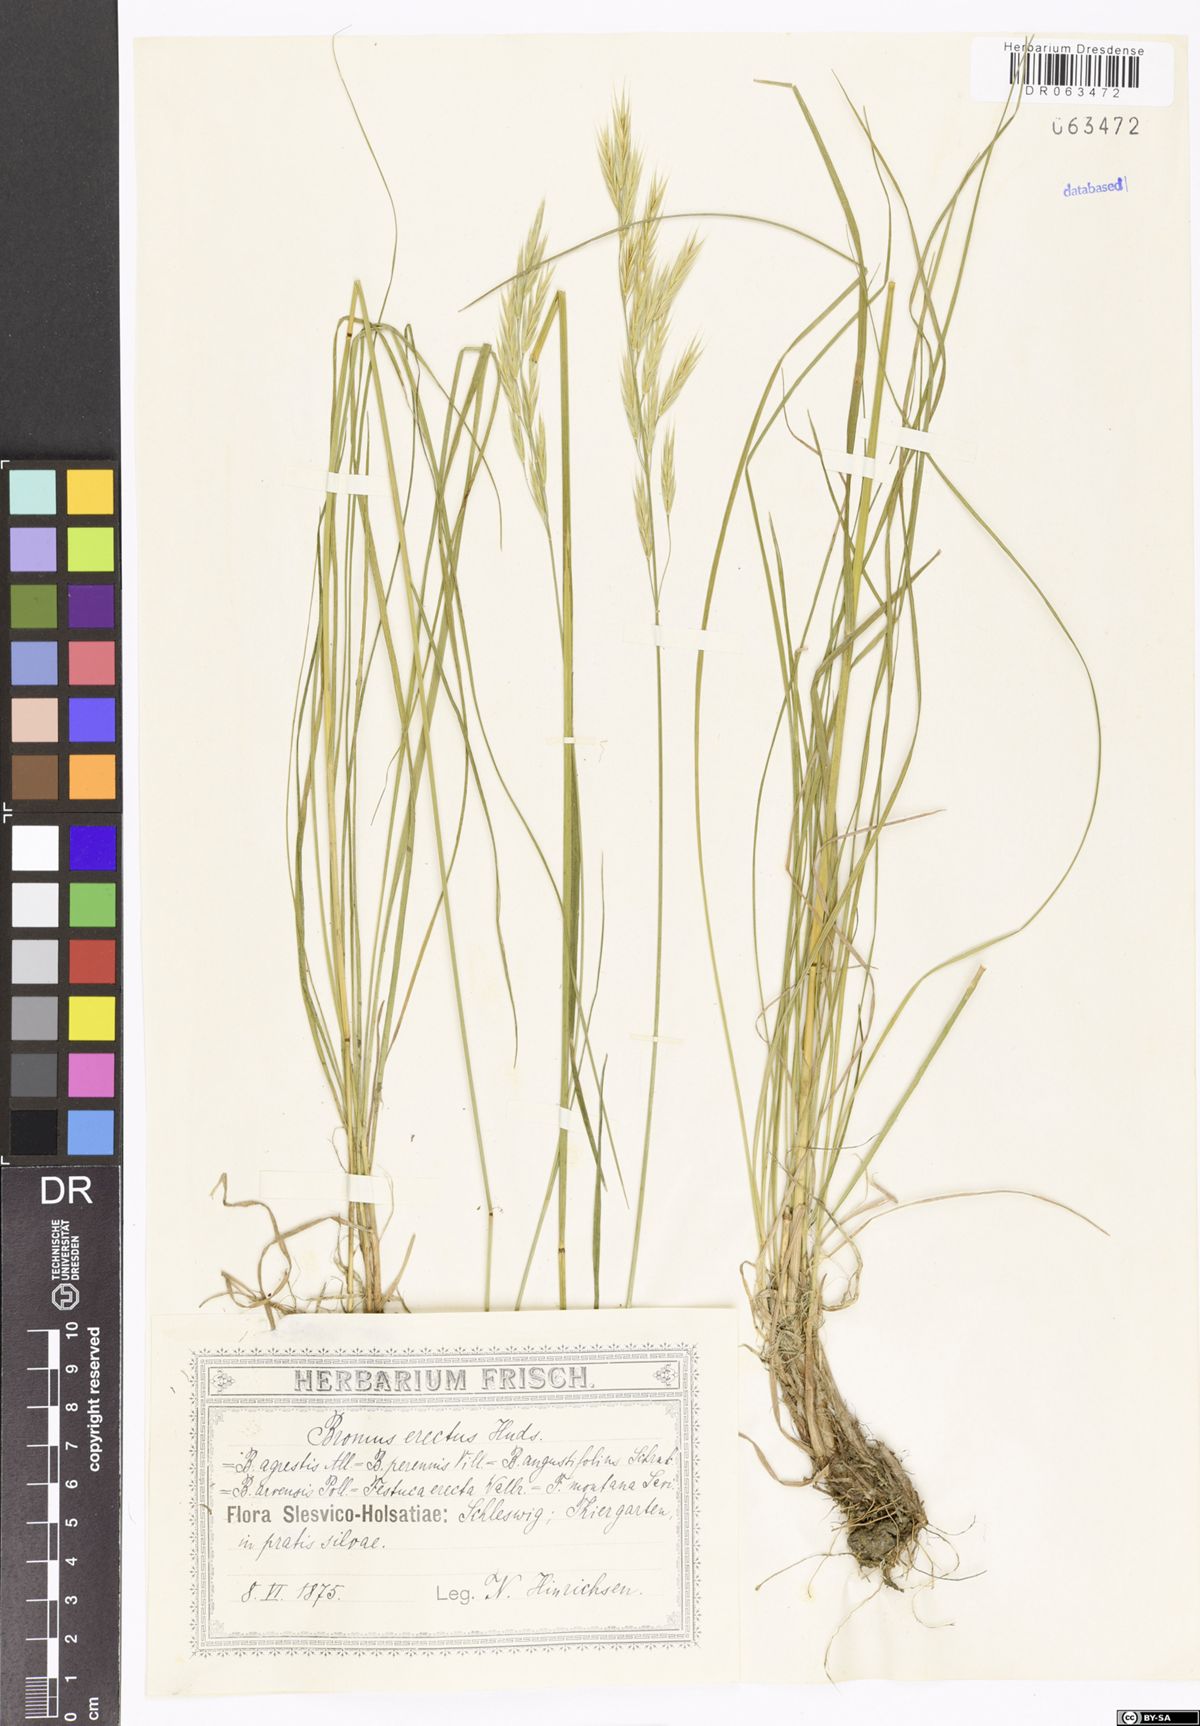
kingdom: Plantae
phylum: Tracheophyta
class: Liliopsida
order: Poales
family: Poaceae
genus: Bromus
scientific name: Bromus erectus
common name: Erect brome
